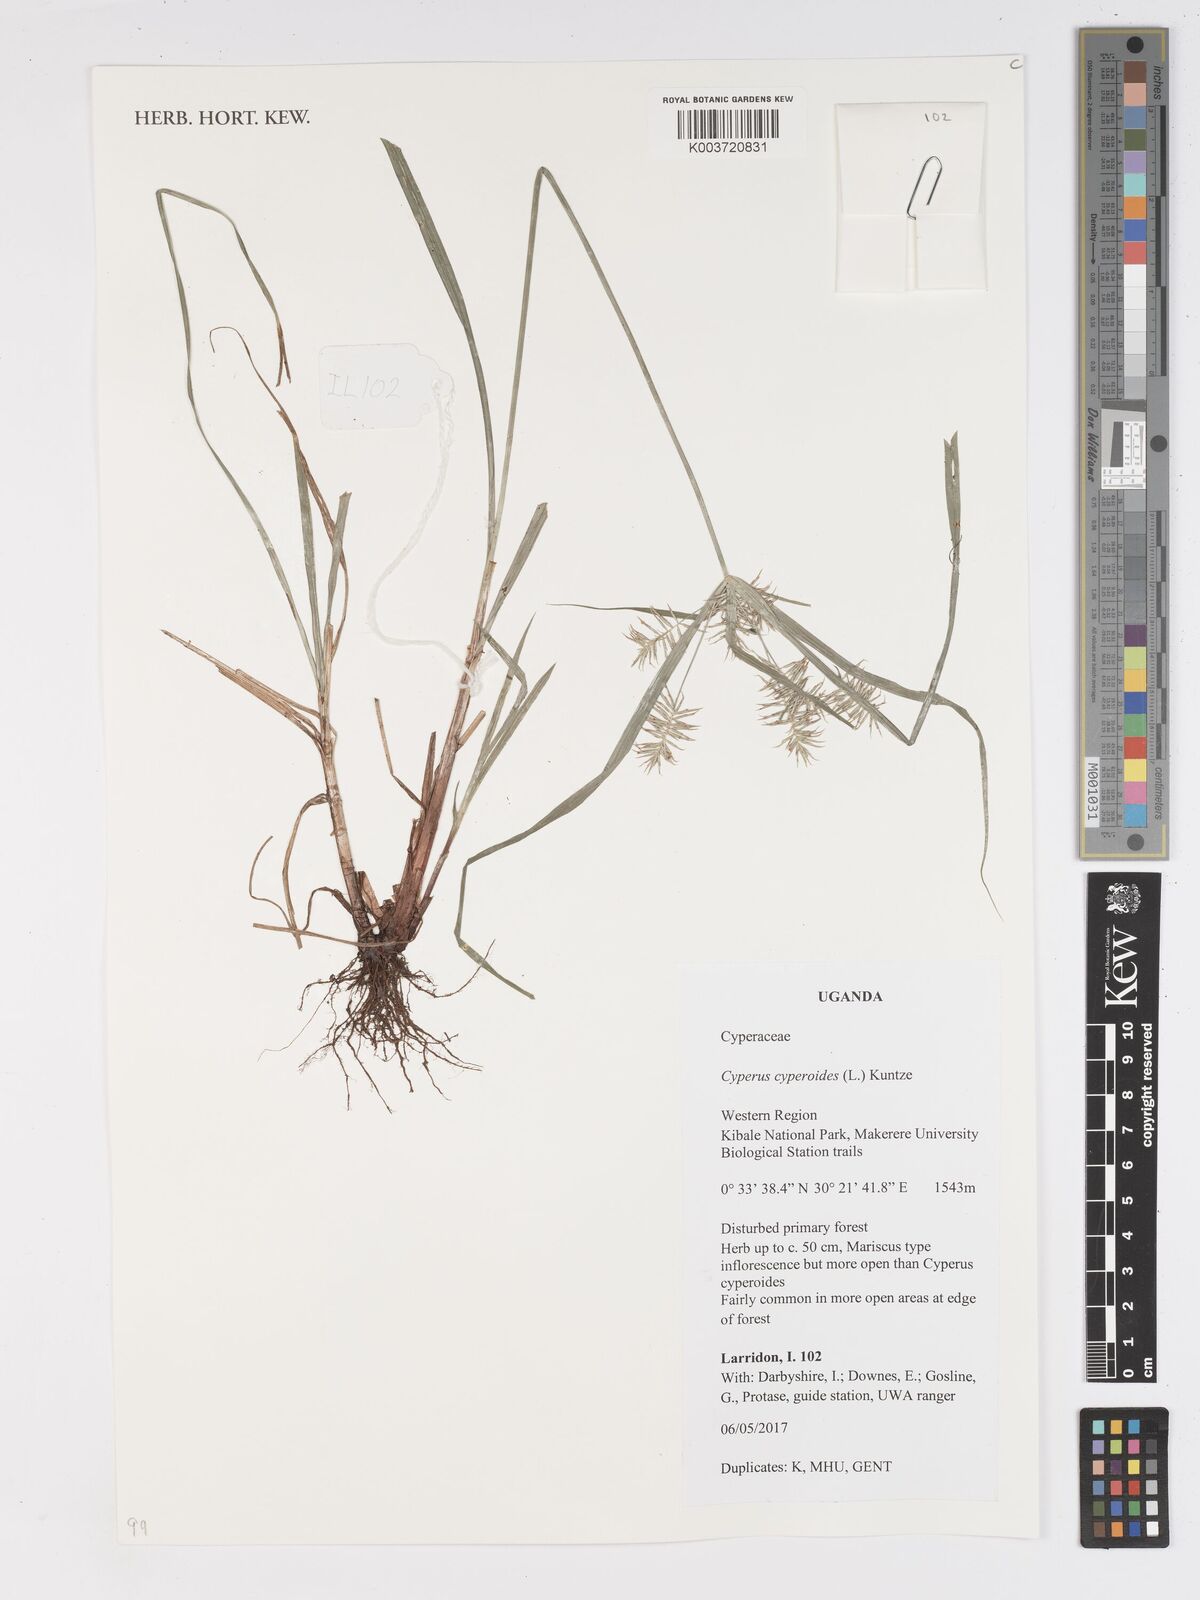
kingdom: Plantae
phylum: Tracheophyta
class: Liliopsida
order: Poales
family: Cyperaceae
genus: Cyperus
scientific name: Cyperus cyperoides
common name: Pacific island flat sedge
